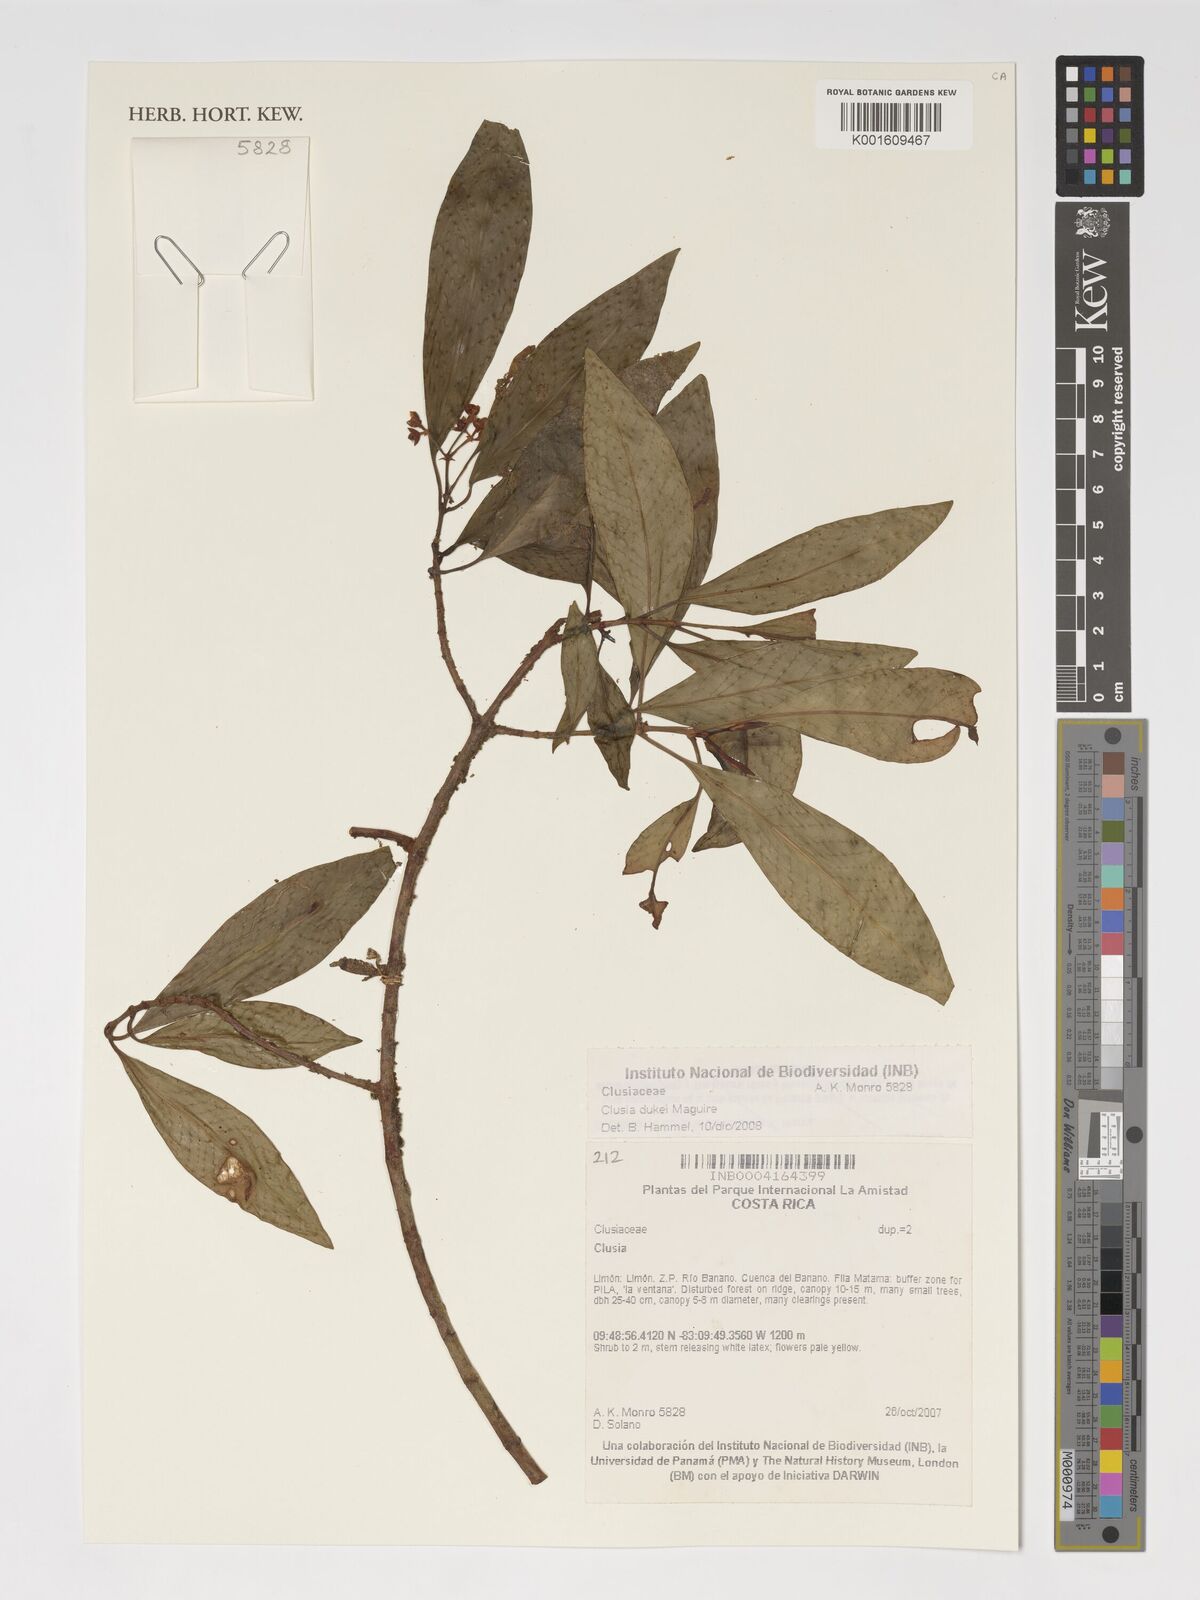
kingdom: Plantae
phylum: Tracheophyta
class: Magnoliopsida
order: Malpighiales
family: Clusiaceae
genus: Clusia
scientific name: Clusia dukei
